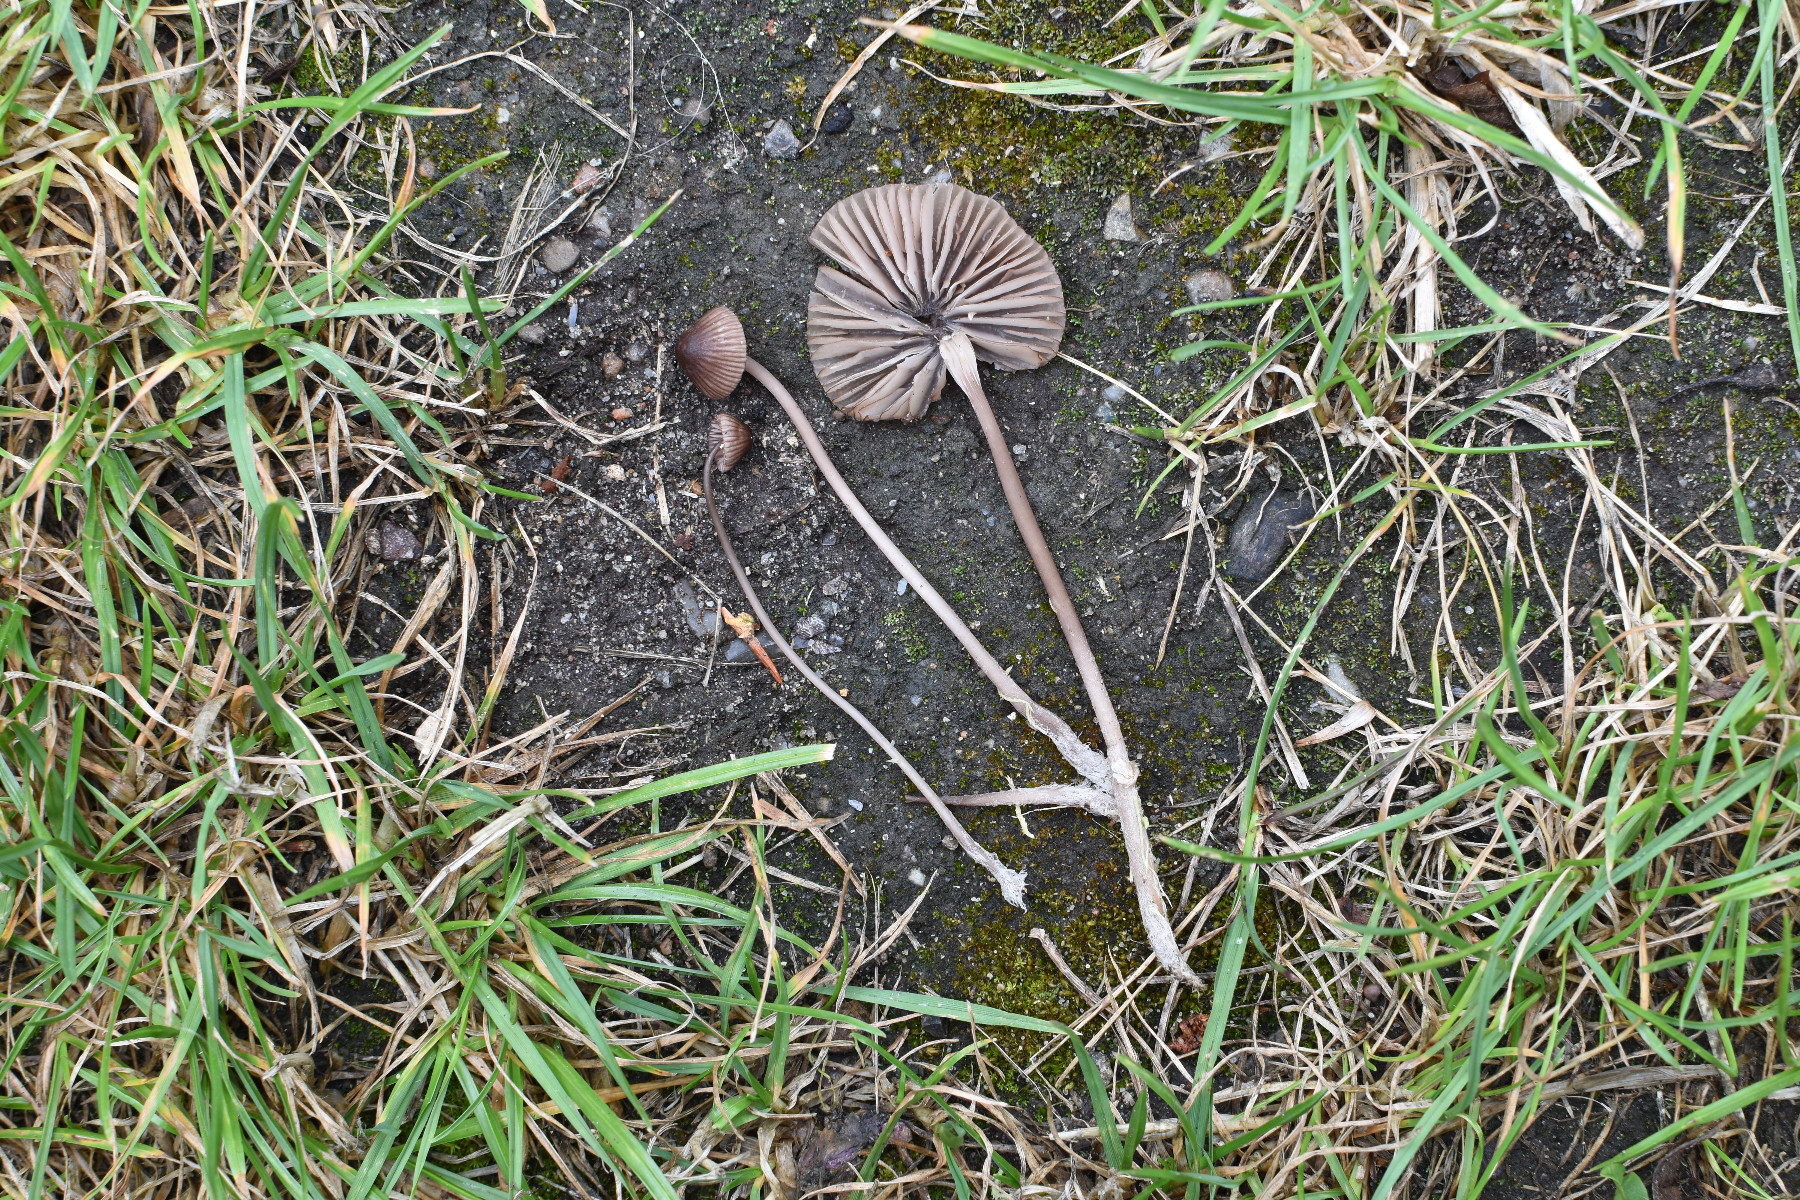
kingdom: Fungi
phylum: Basidiomycota
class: Agaricomycetes
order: Agaricales
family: Mycenaceae
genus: Mycena
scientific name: Mycena rubromarginata
